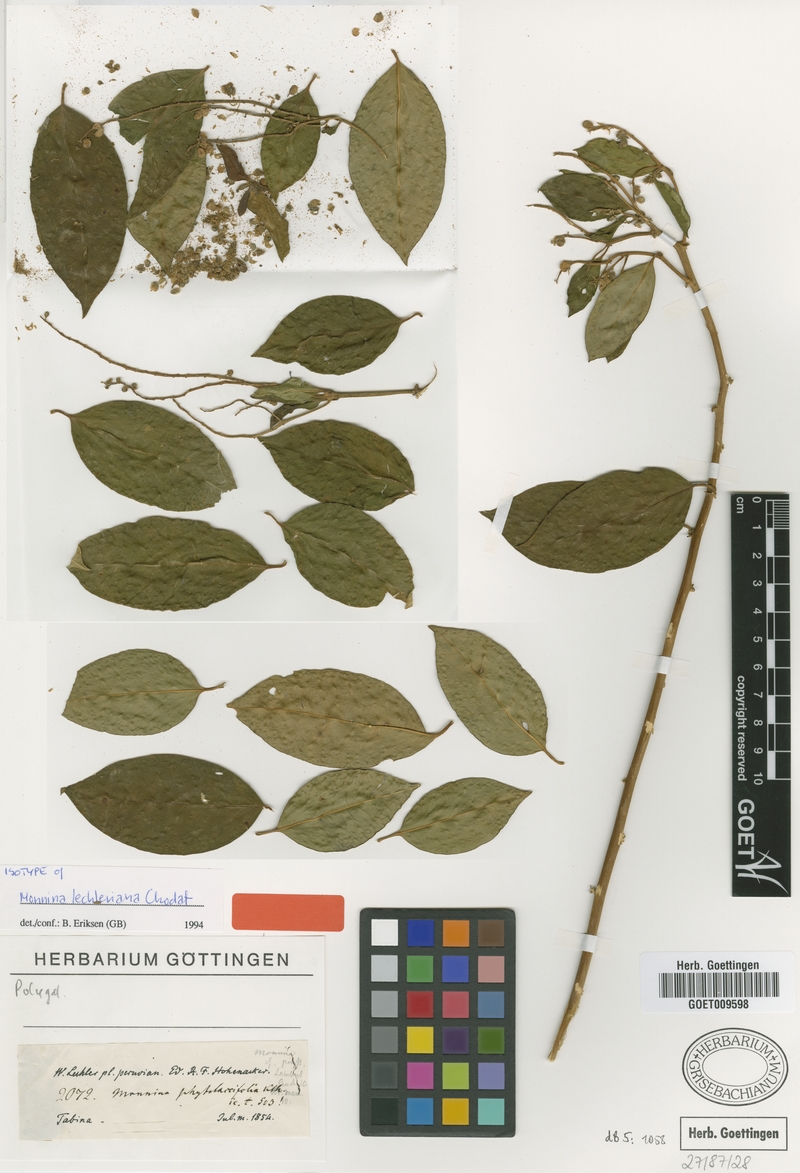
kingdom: Plantae
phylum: Tracheophyta
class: Magnoliopsida
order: Fabales
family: Polygalaceae
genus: Monnina
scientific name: Monnina lechleriana
